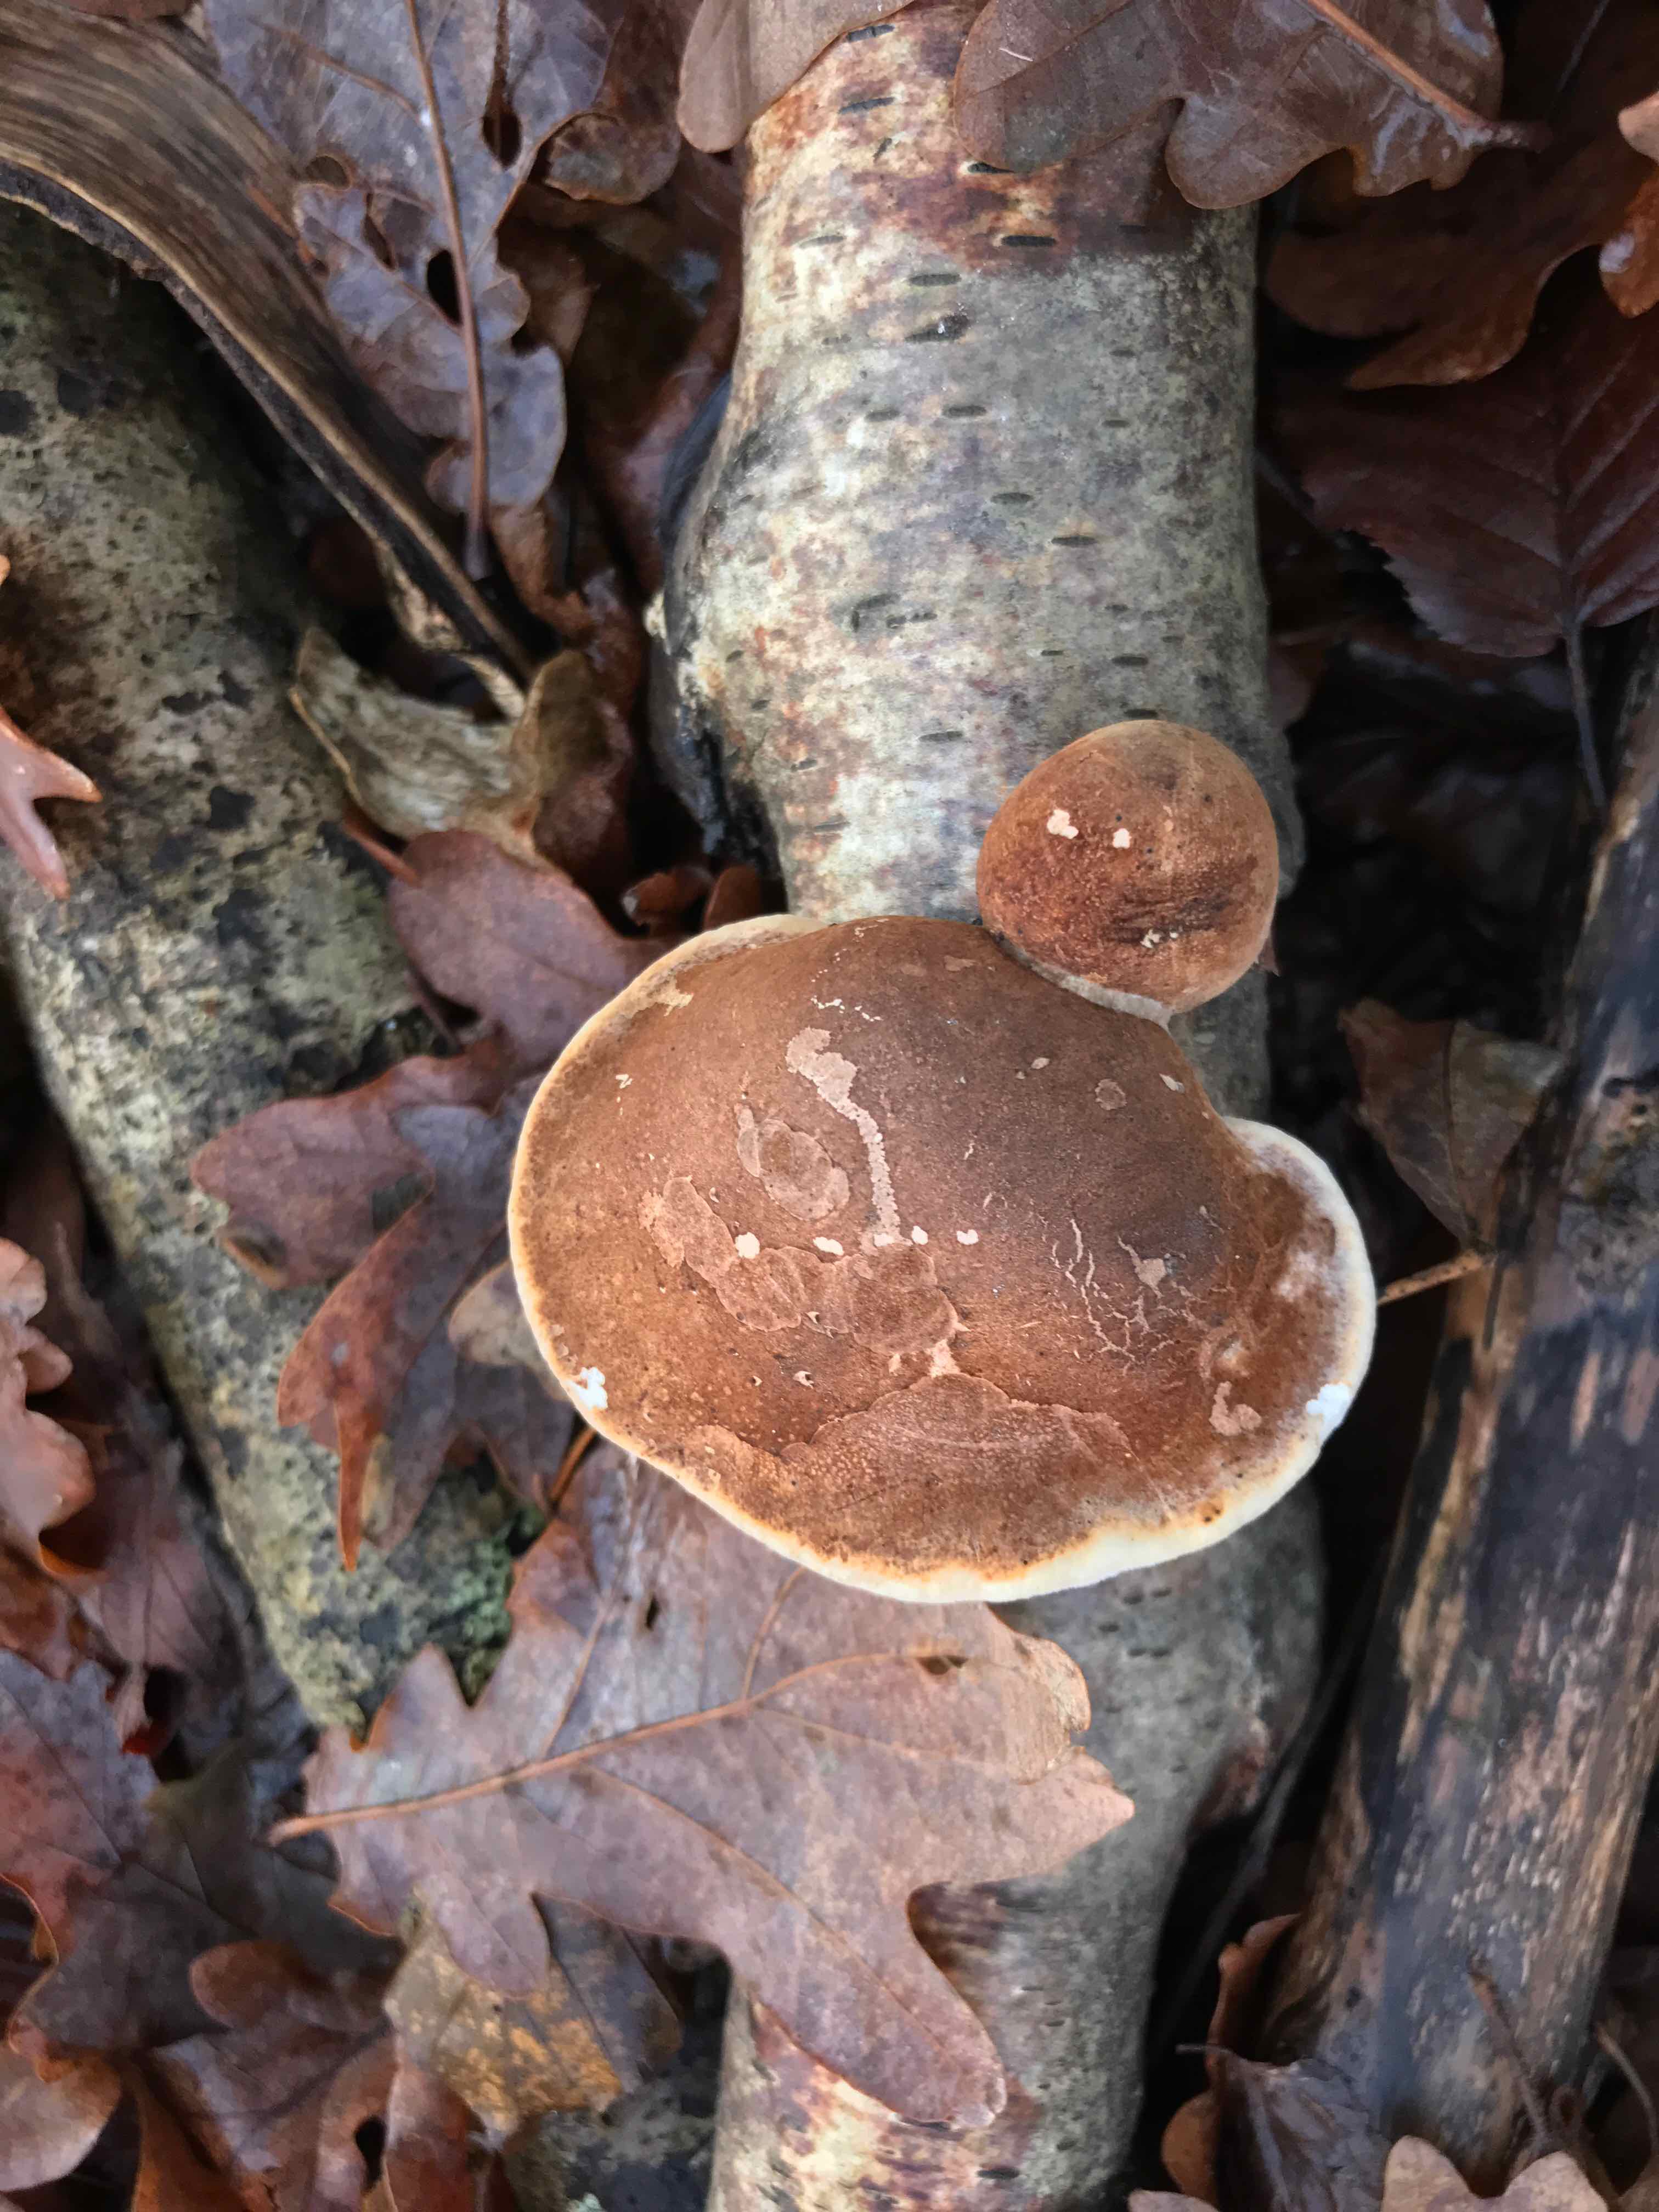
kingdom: Fungi
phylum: Basidiomycota
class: Agaricomycetes
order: Polyporales
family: Fomitopsidaceae
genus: Fomitopsis
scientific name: Fomitopsis betulina
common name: birkeporesvamp
